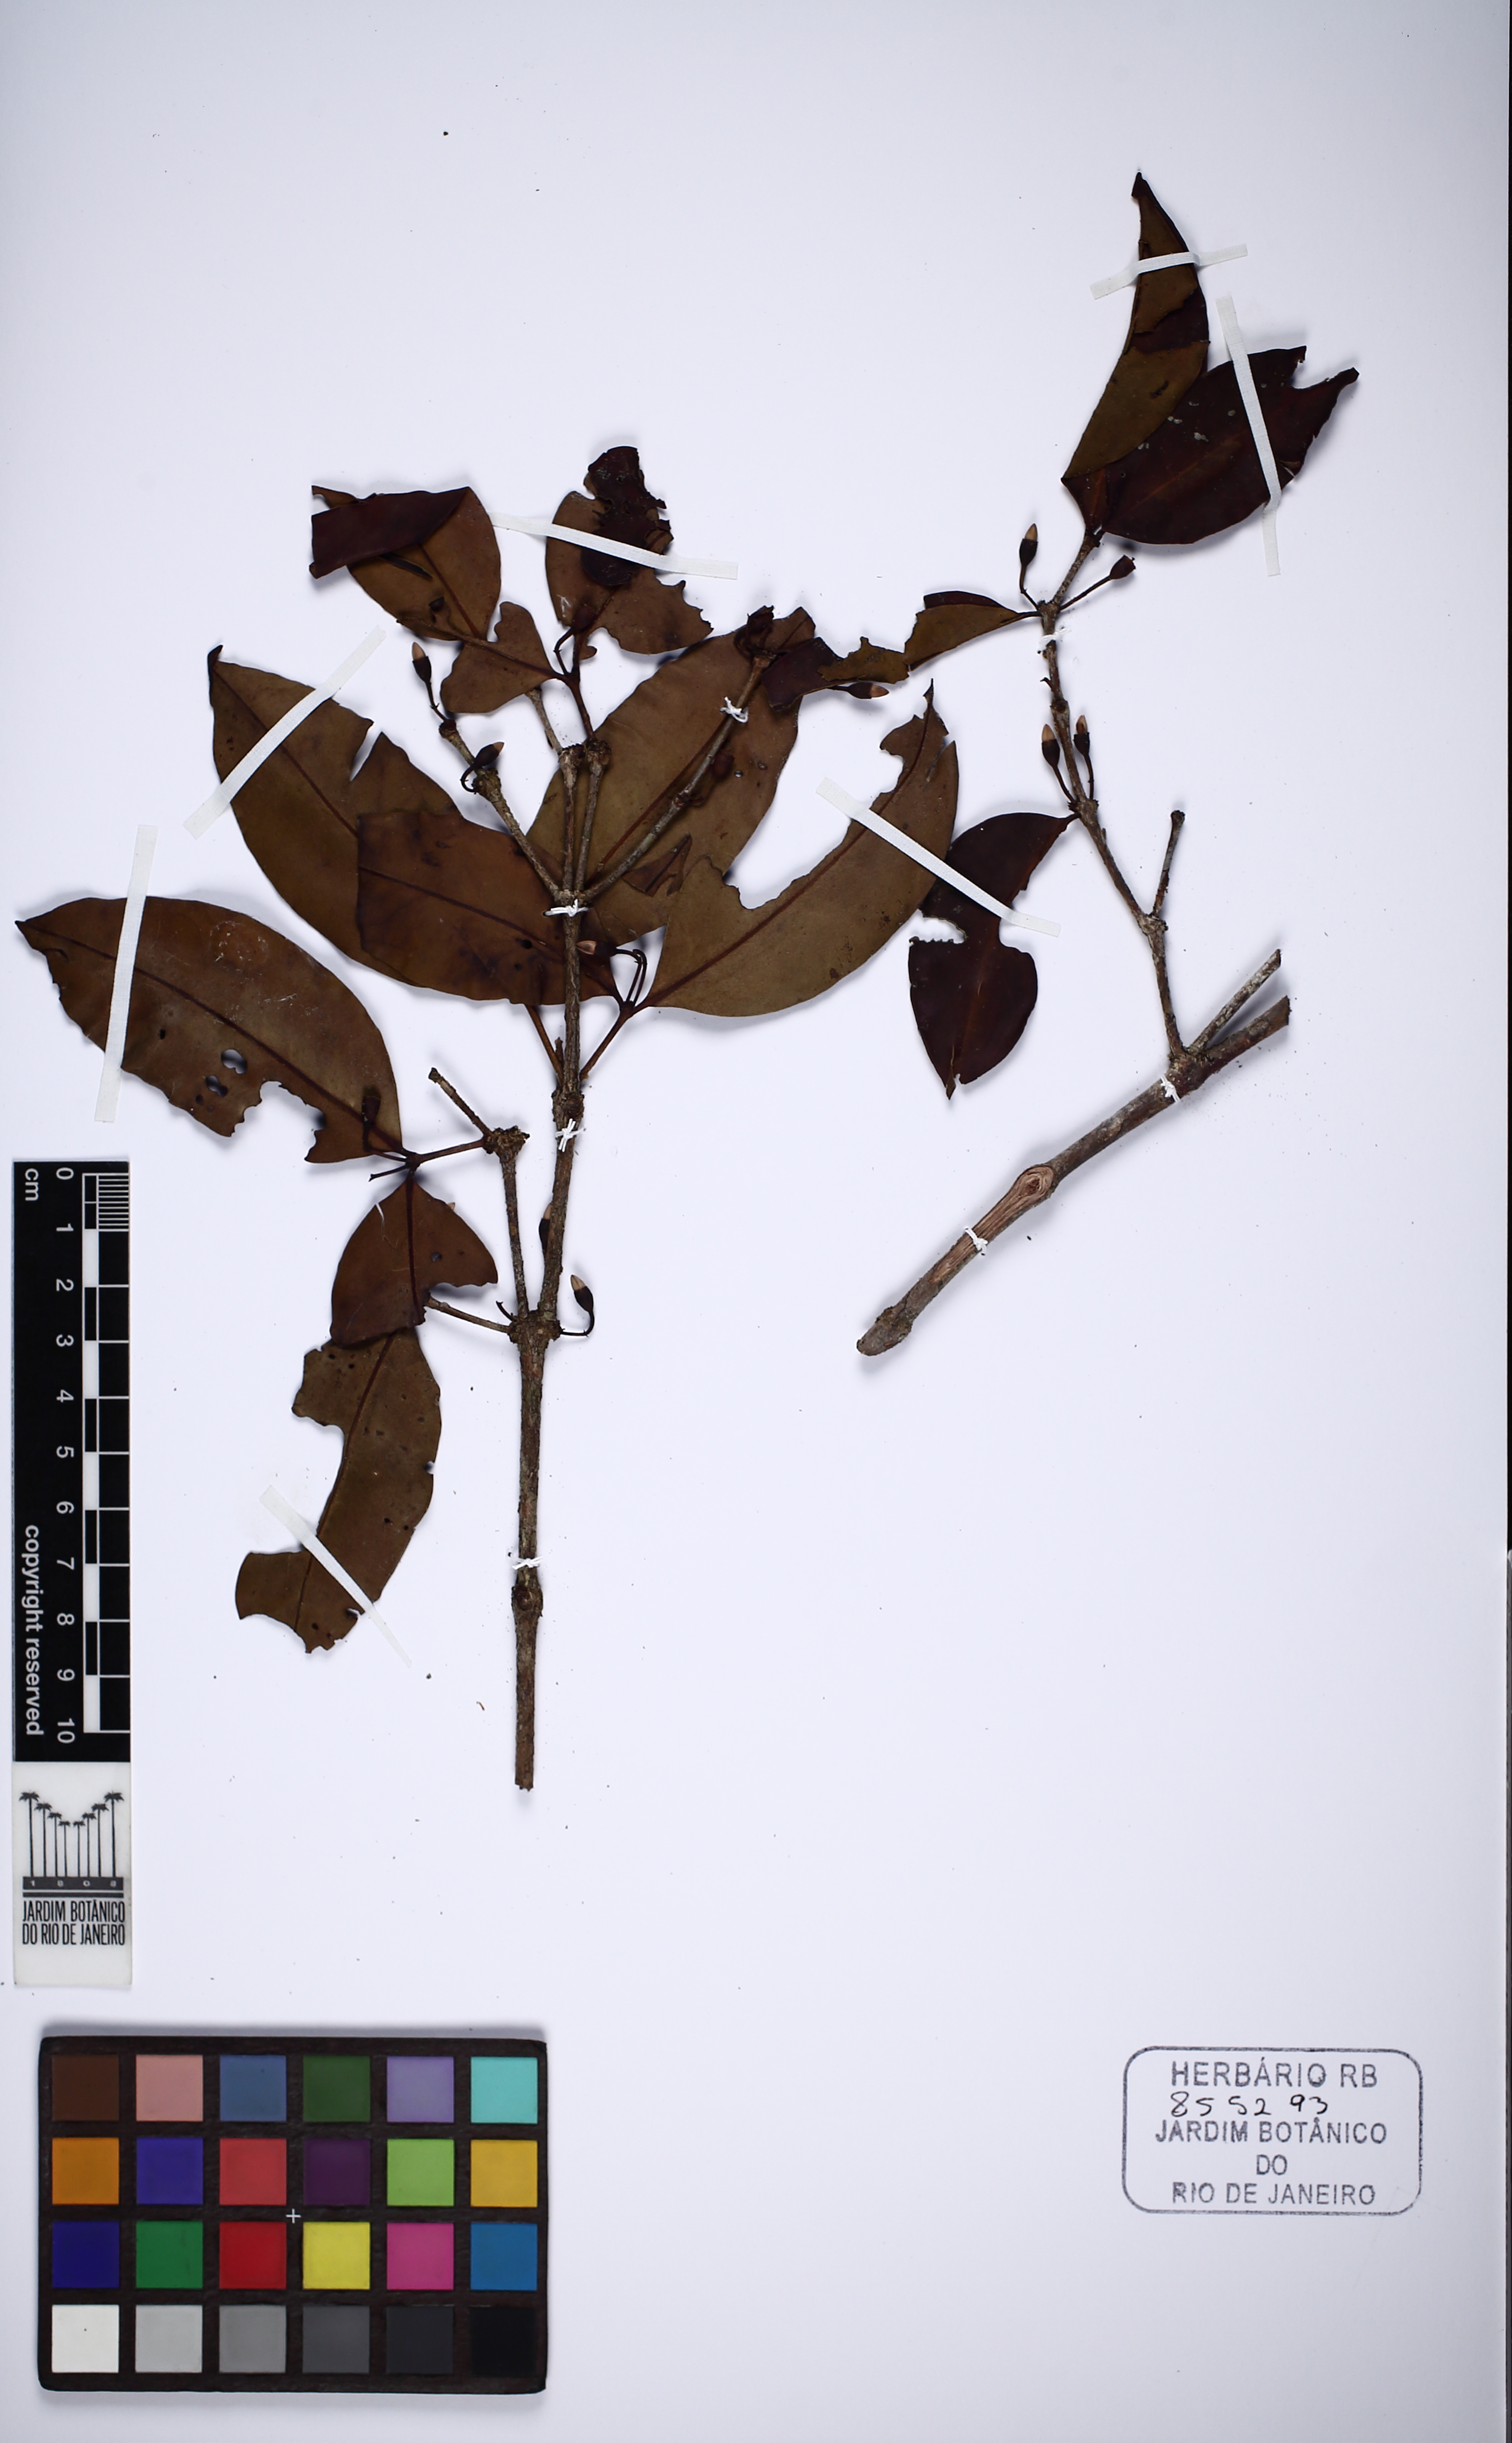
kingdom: Plantae
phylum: Tracheophyta
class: Magnoliopsida
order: Myrtales
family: Melastomataceae
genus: Votomita
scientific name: Votomita roraimensis
